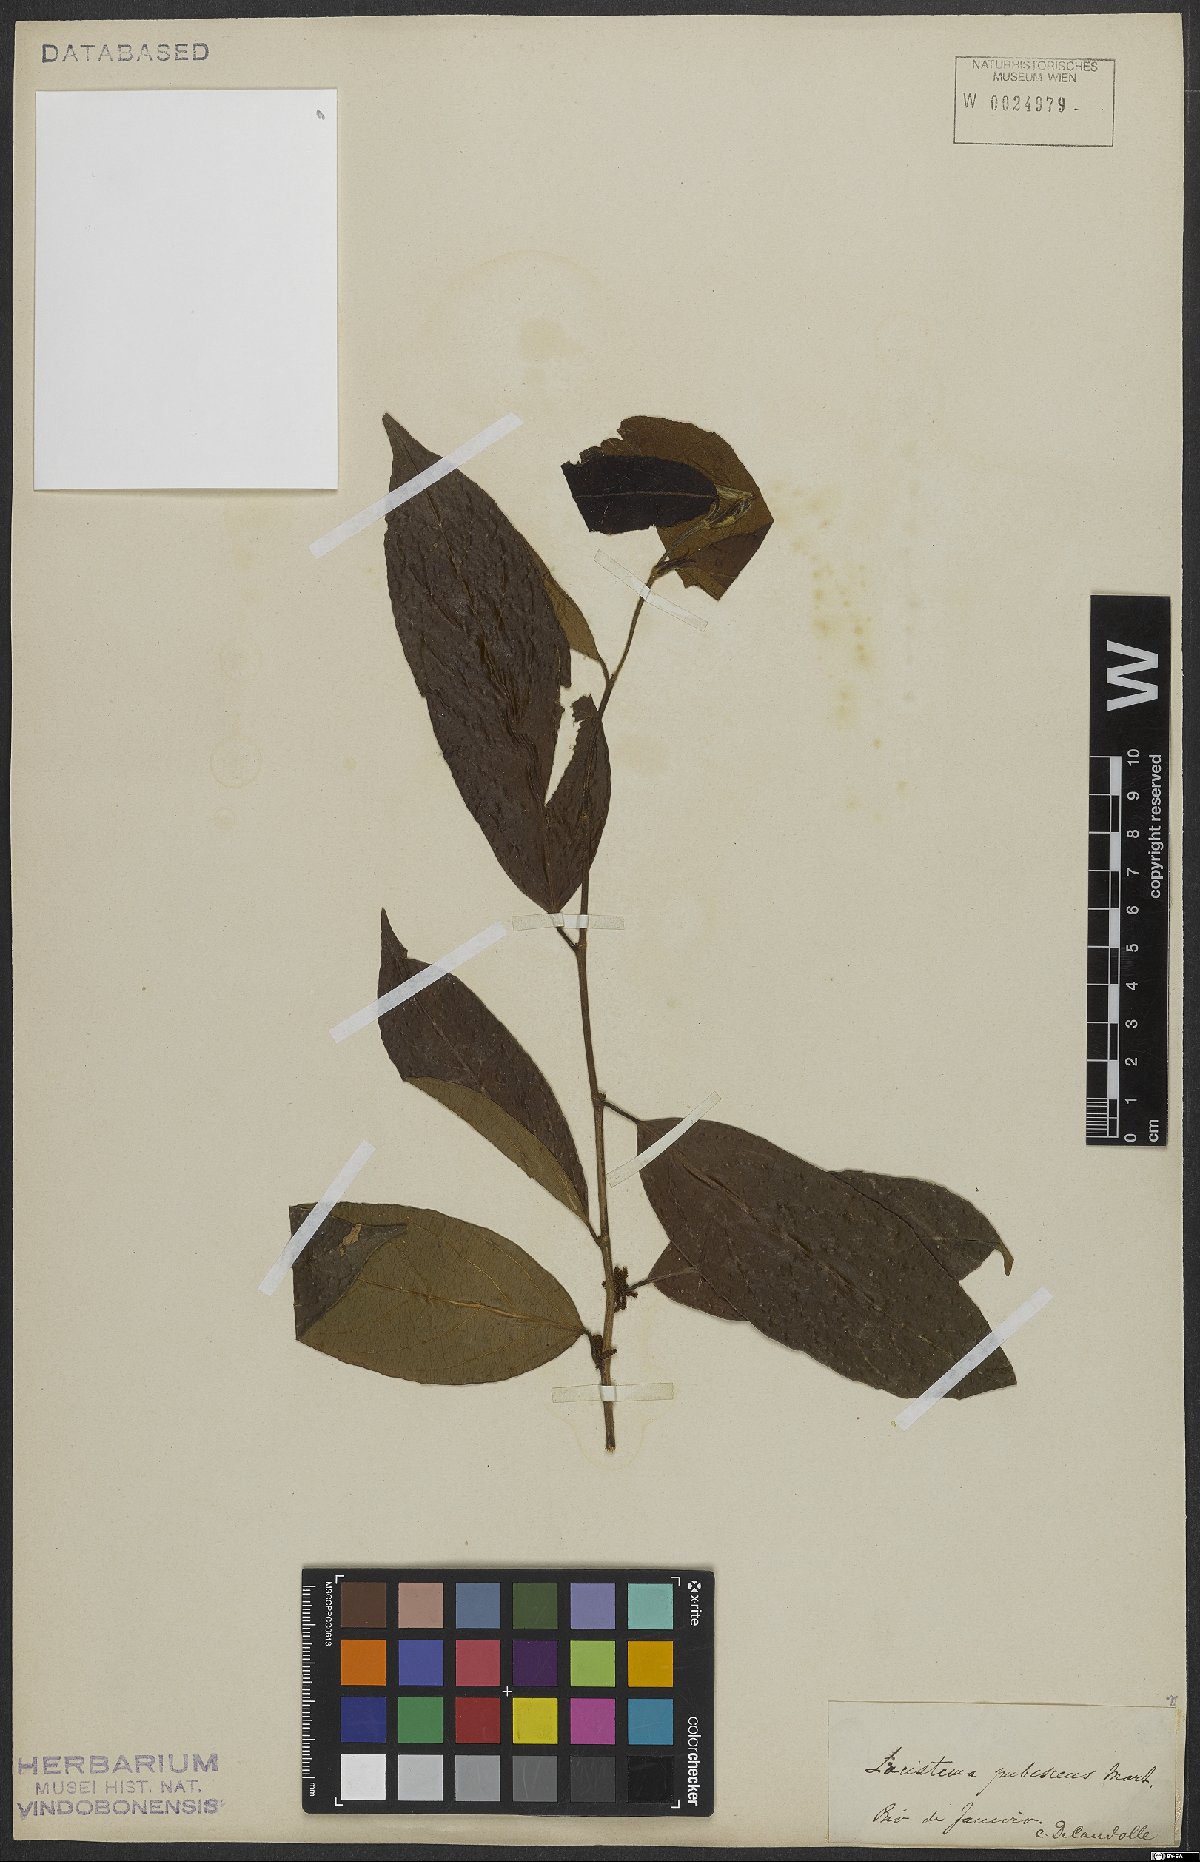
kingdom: Plantae
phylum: Tracheophyta
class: Magnoliopsida
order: Malpighiales
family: Lacistemataceae
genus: Lacistema
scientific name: Lacistema pubescens
